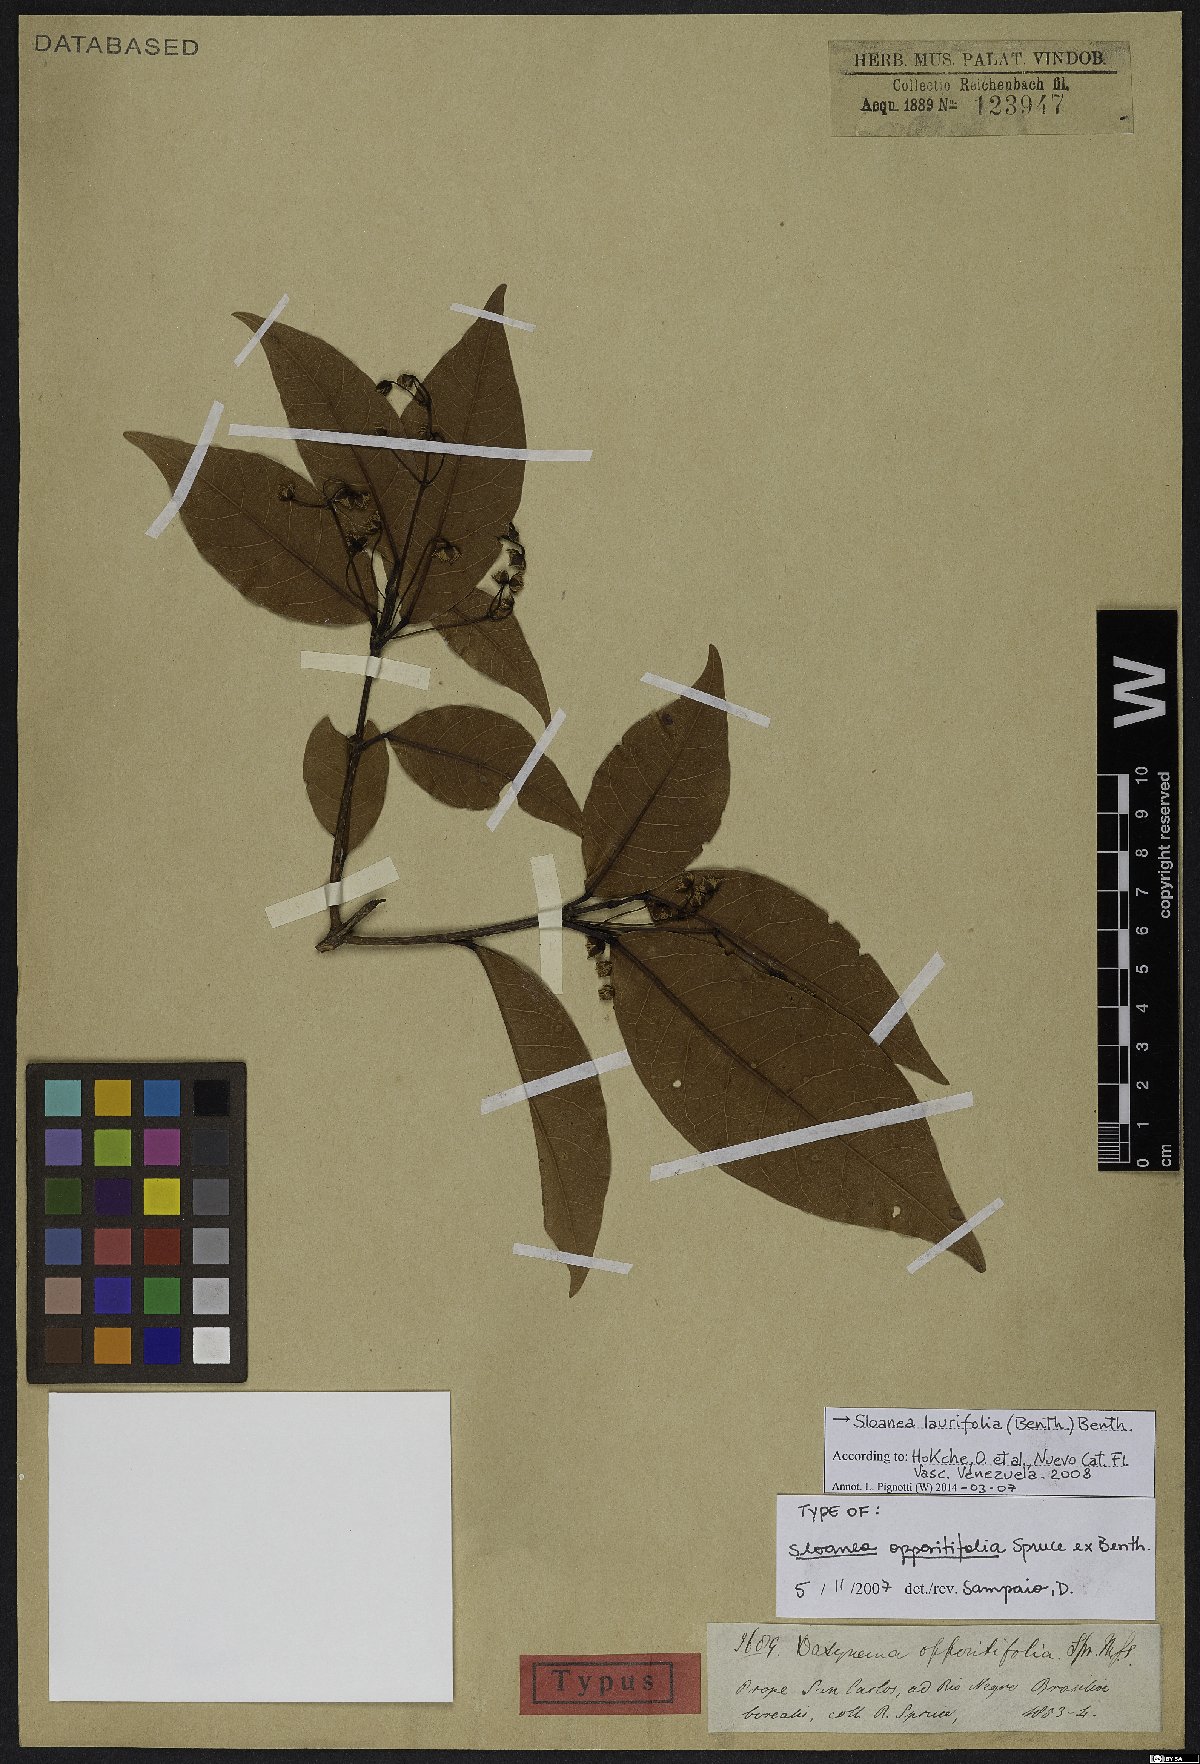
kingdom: Plantae
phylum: Tracheophyta
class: Magnoliopsida
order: Oxalidales
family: Elaeocarpaceae
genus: Sloanea
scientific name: Sloanea laurifolia
